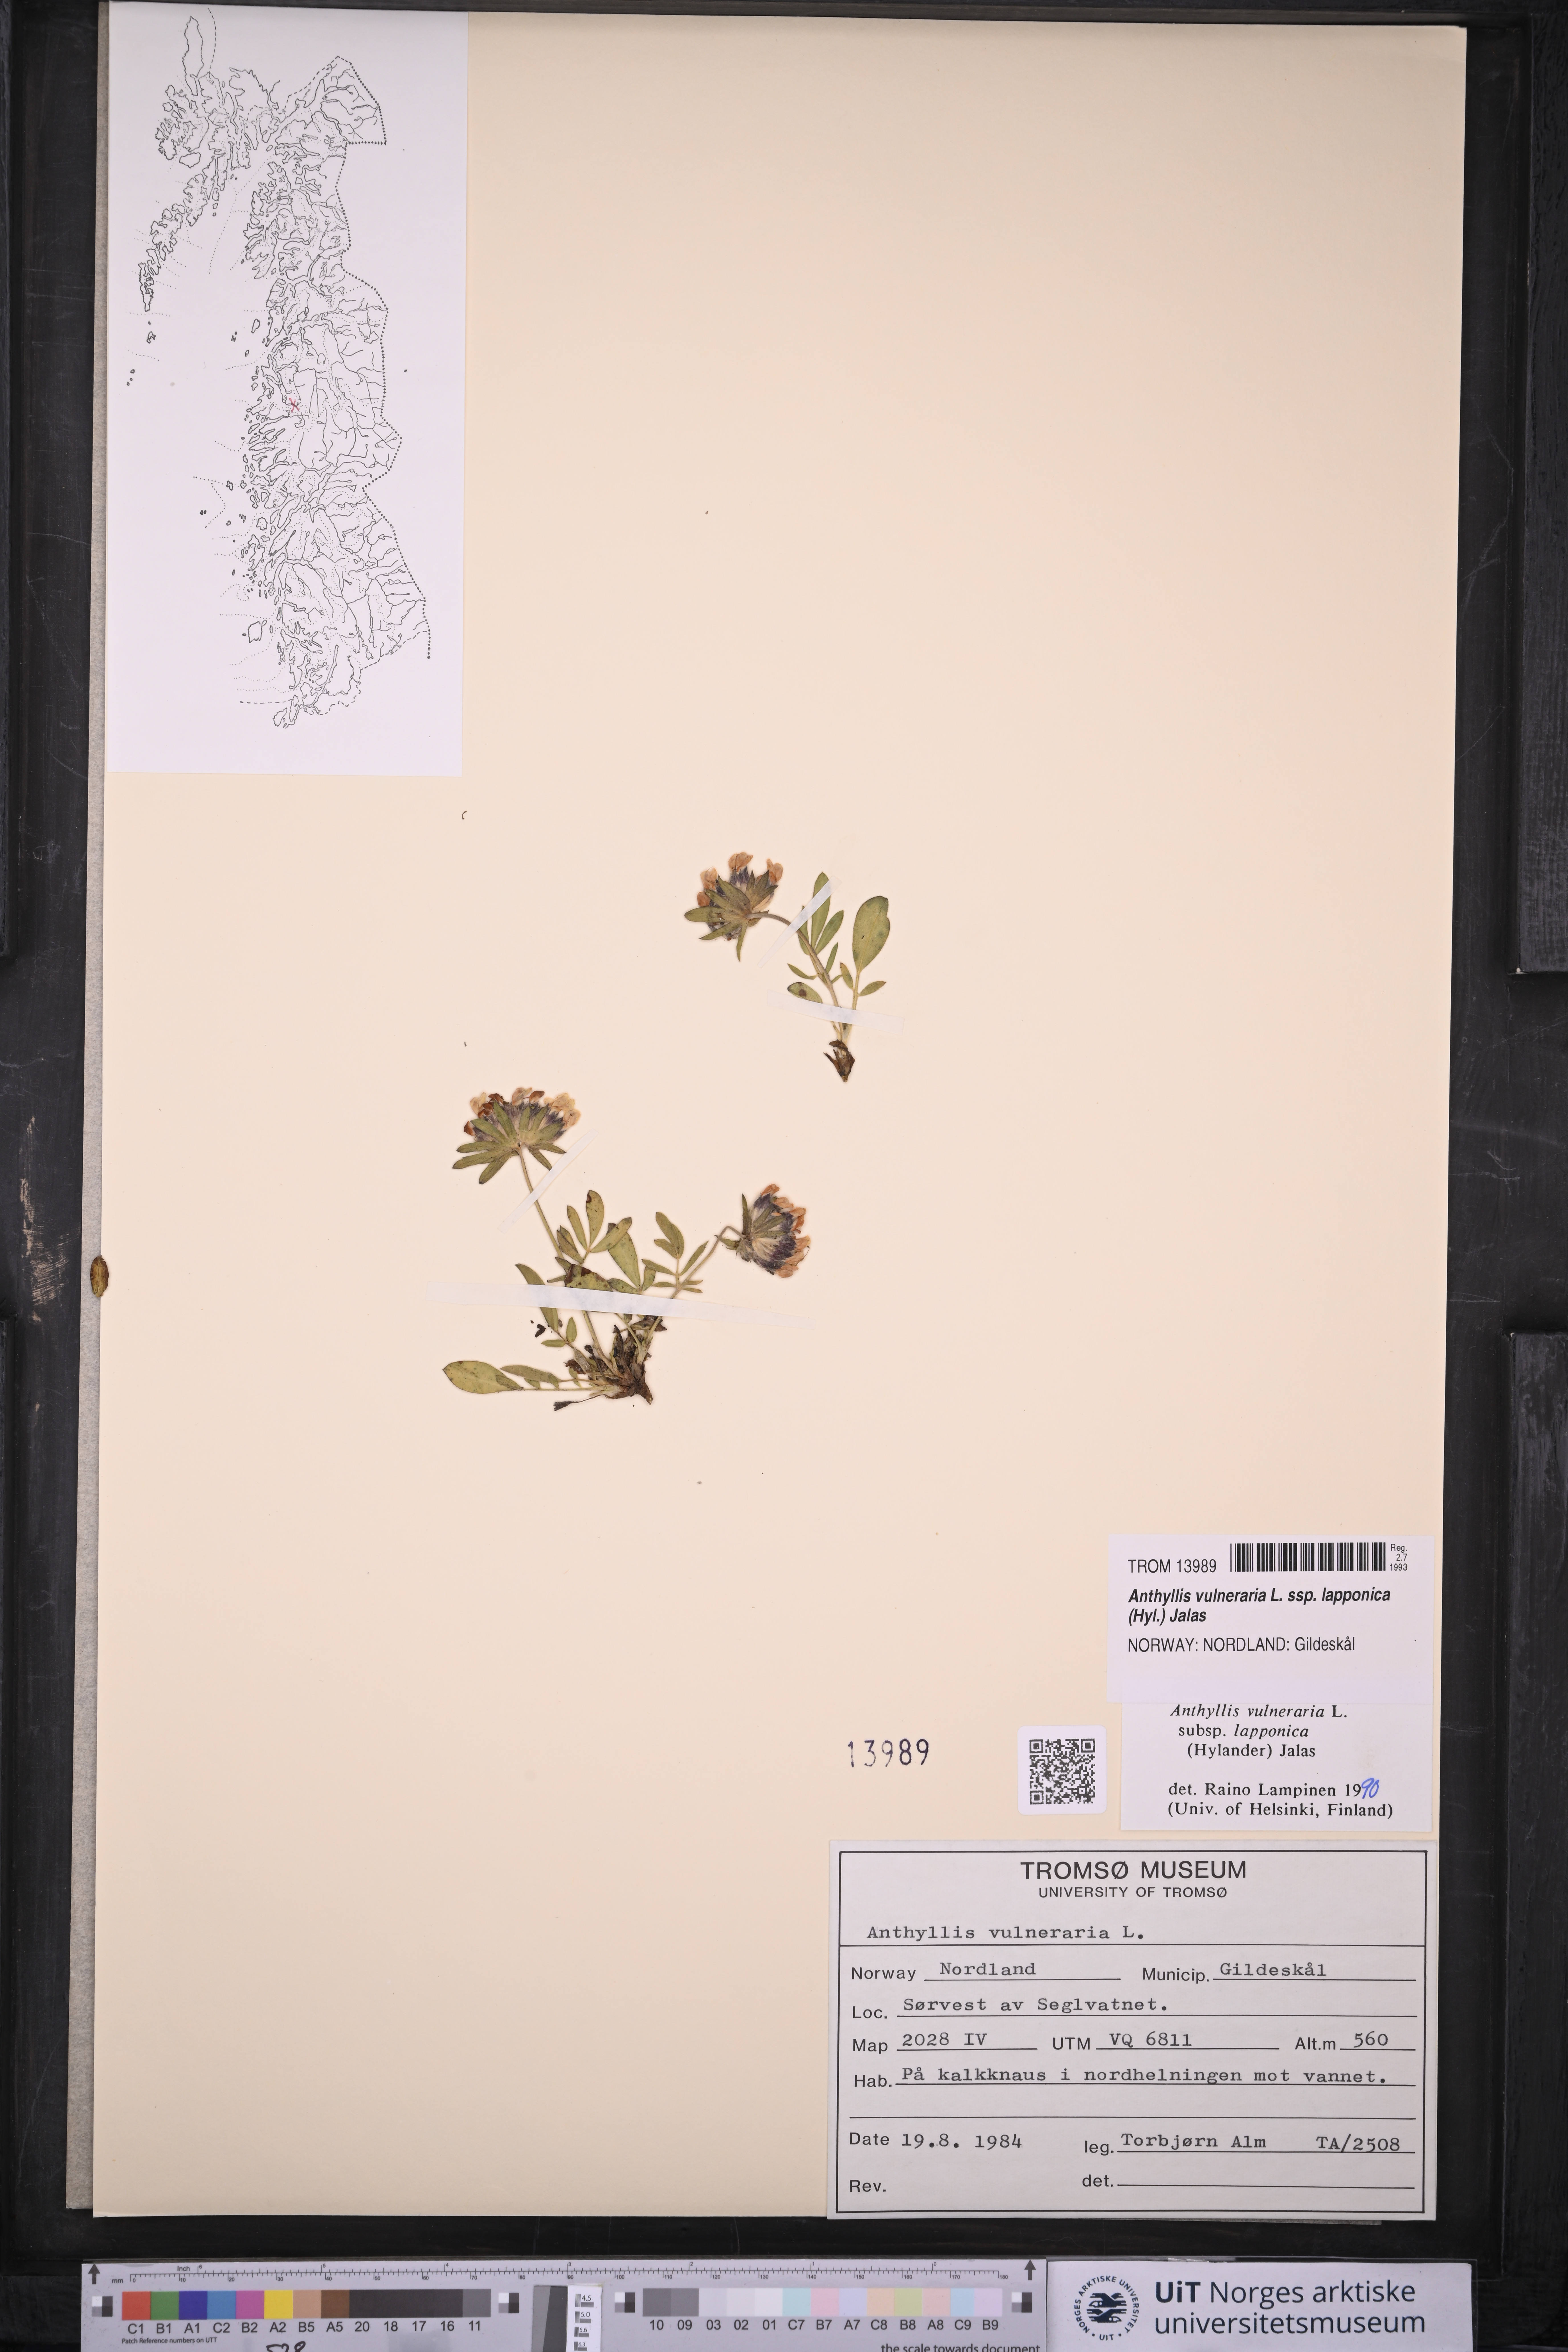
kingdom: Plantae
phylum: Tracheophyta
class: Magnoliopsida
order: Fabales
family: Fabaceae
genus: Anthyllis
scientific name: Anthyllis vulneraria
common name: Kidney vetch
